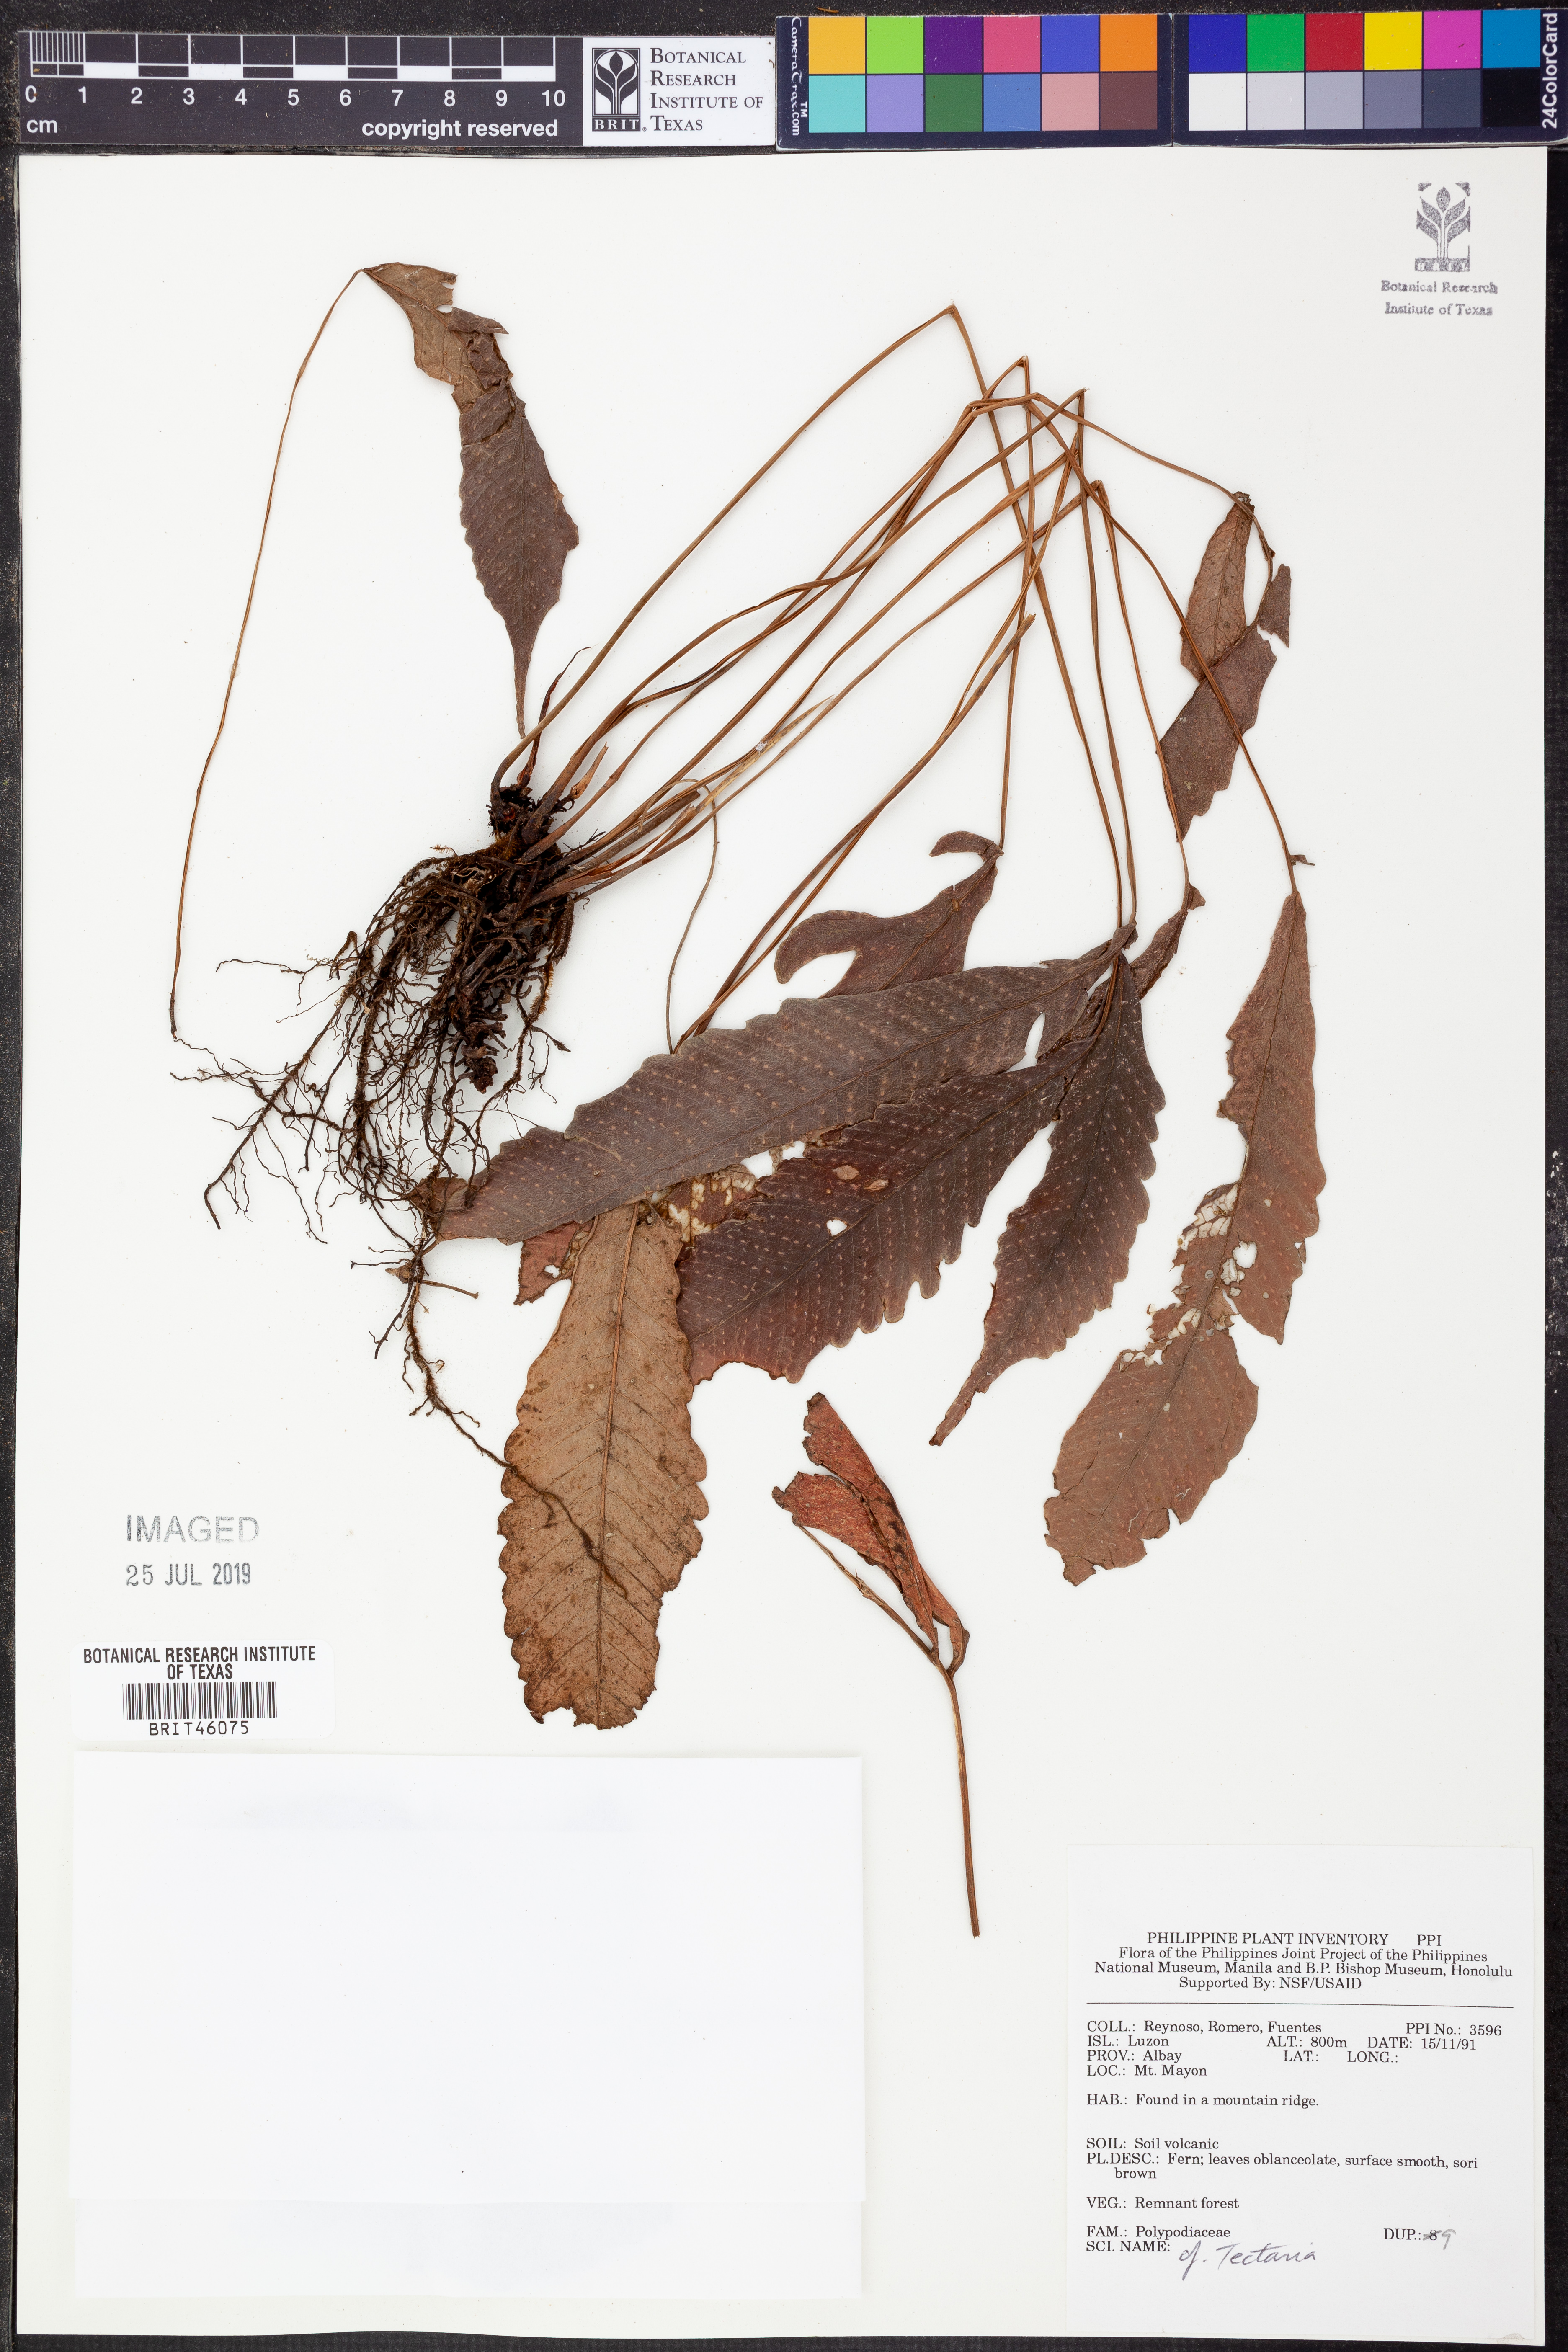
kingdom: Plantae
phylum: Tracheophyta
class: Polypodiopsida
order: Polypodiales
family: Tectariaceae
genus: Tectaria
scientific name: Tectaria
